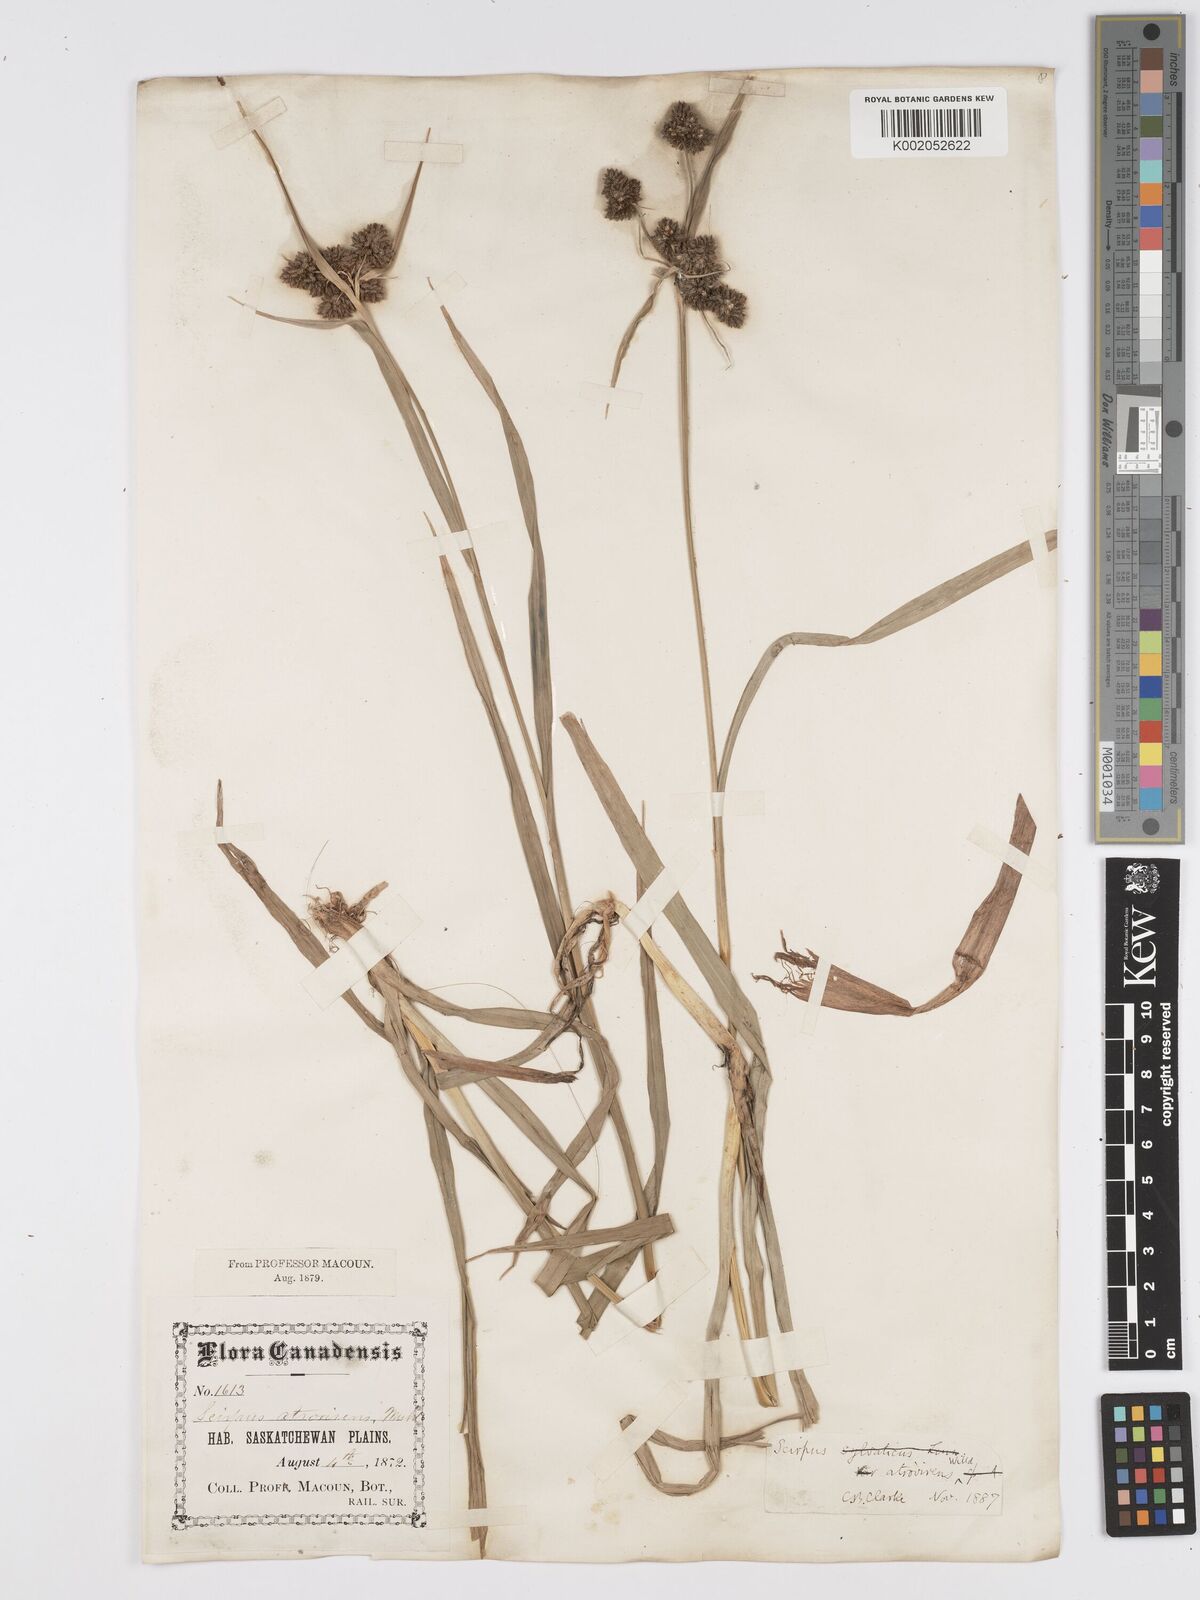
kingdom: Plantae
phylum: Tracheophyta
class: Liliopsida
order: Poales
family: Cyperaceae
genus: Scirpus
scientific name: Scirpus atrovirens
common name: Black bulrush
